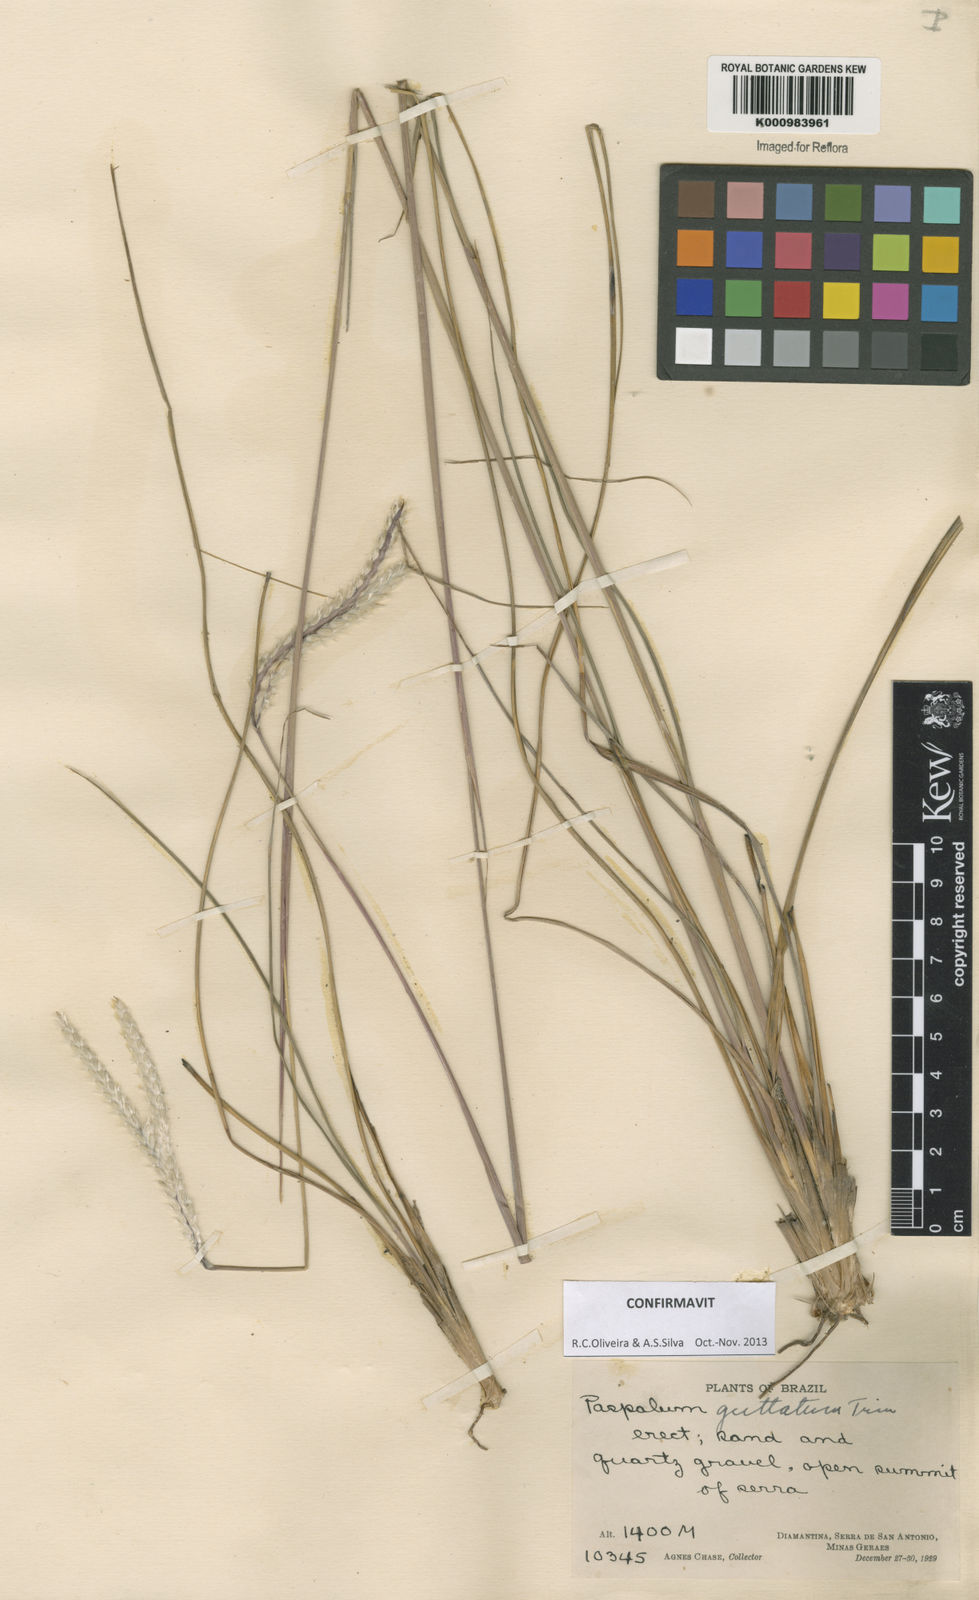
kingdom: Plantae
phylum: Tracheophyta
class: Liliopsida
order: Poales
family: Poaceae
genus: Paspalum
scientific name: Paspalum ammodes
